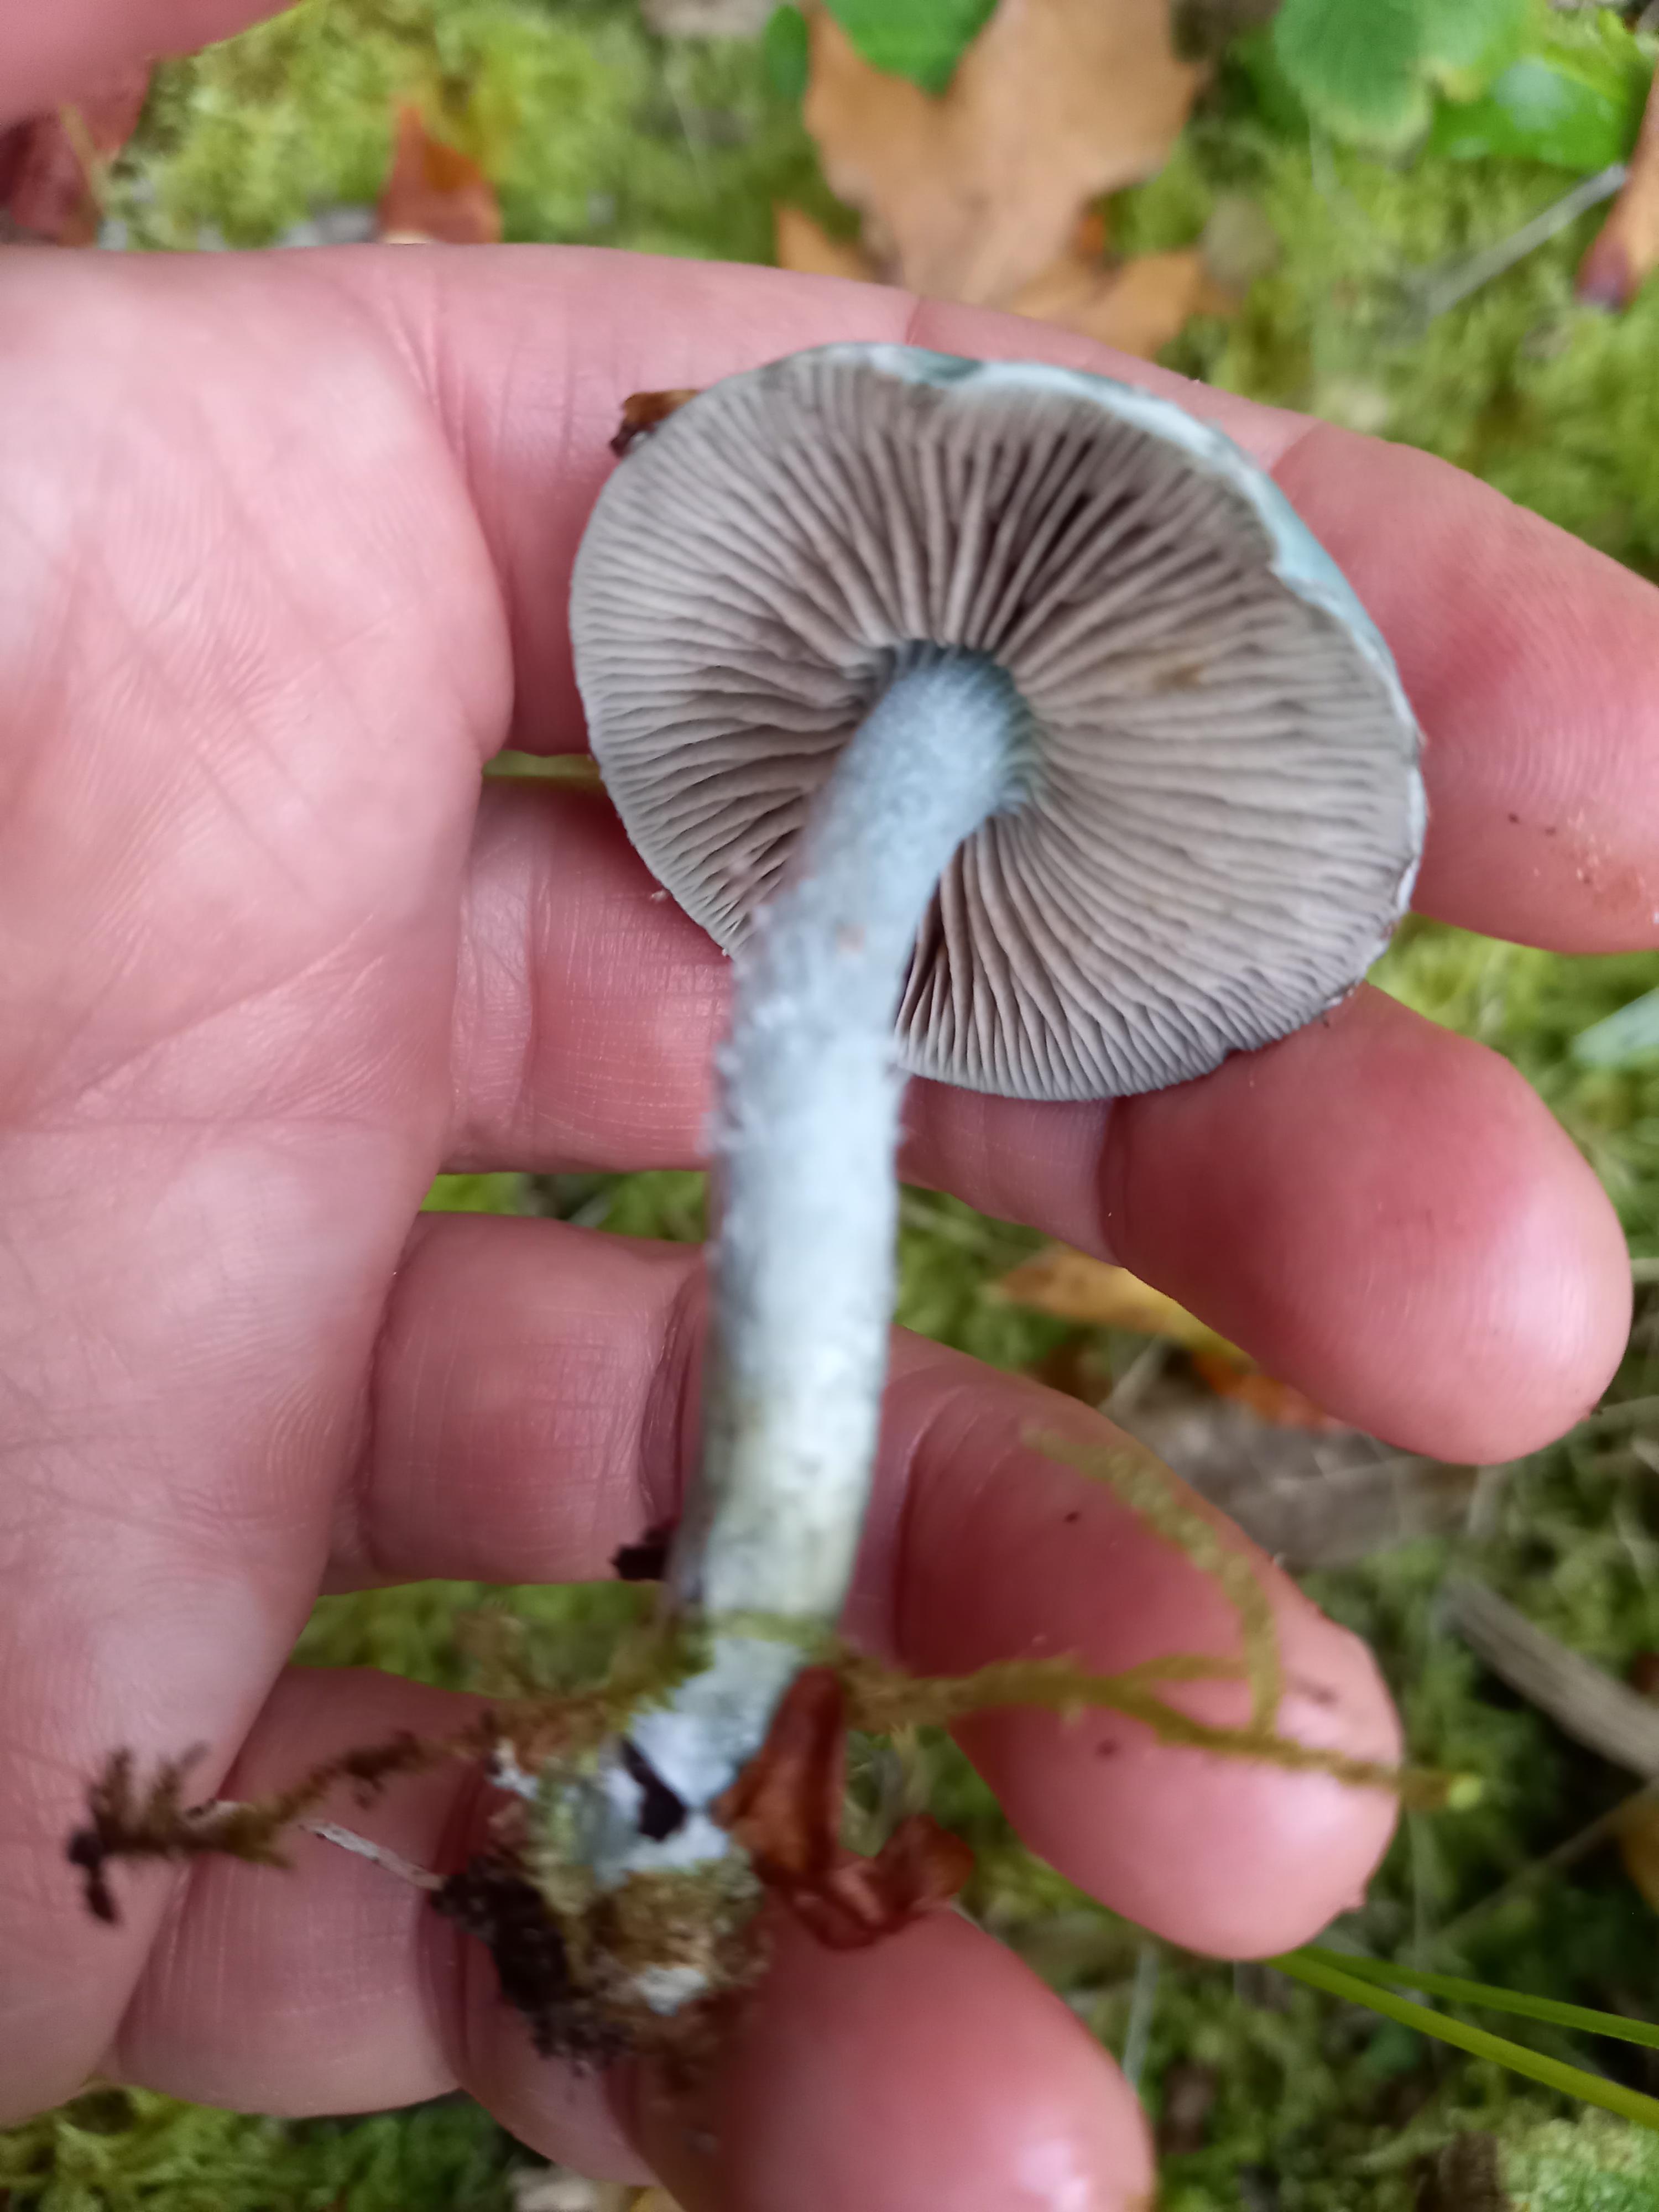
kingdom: Fungi
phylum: Basidiomycota
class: Agaricomycetes
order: Agaricales
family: Strophariaceae
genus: Stropharia
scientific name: Stropharia cyanea
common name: blågrøn bredblad
